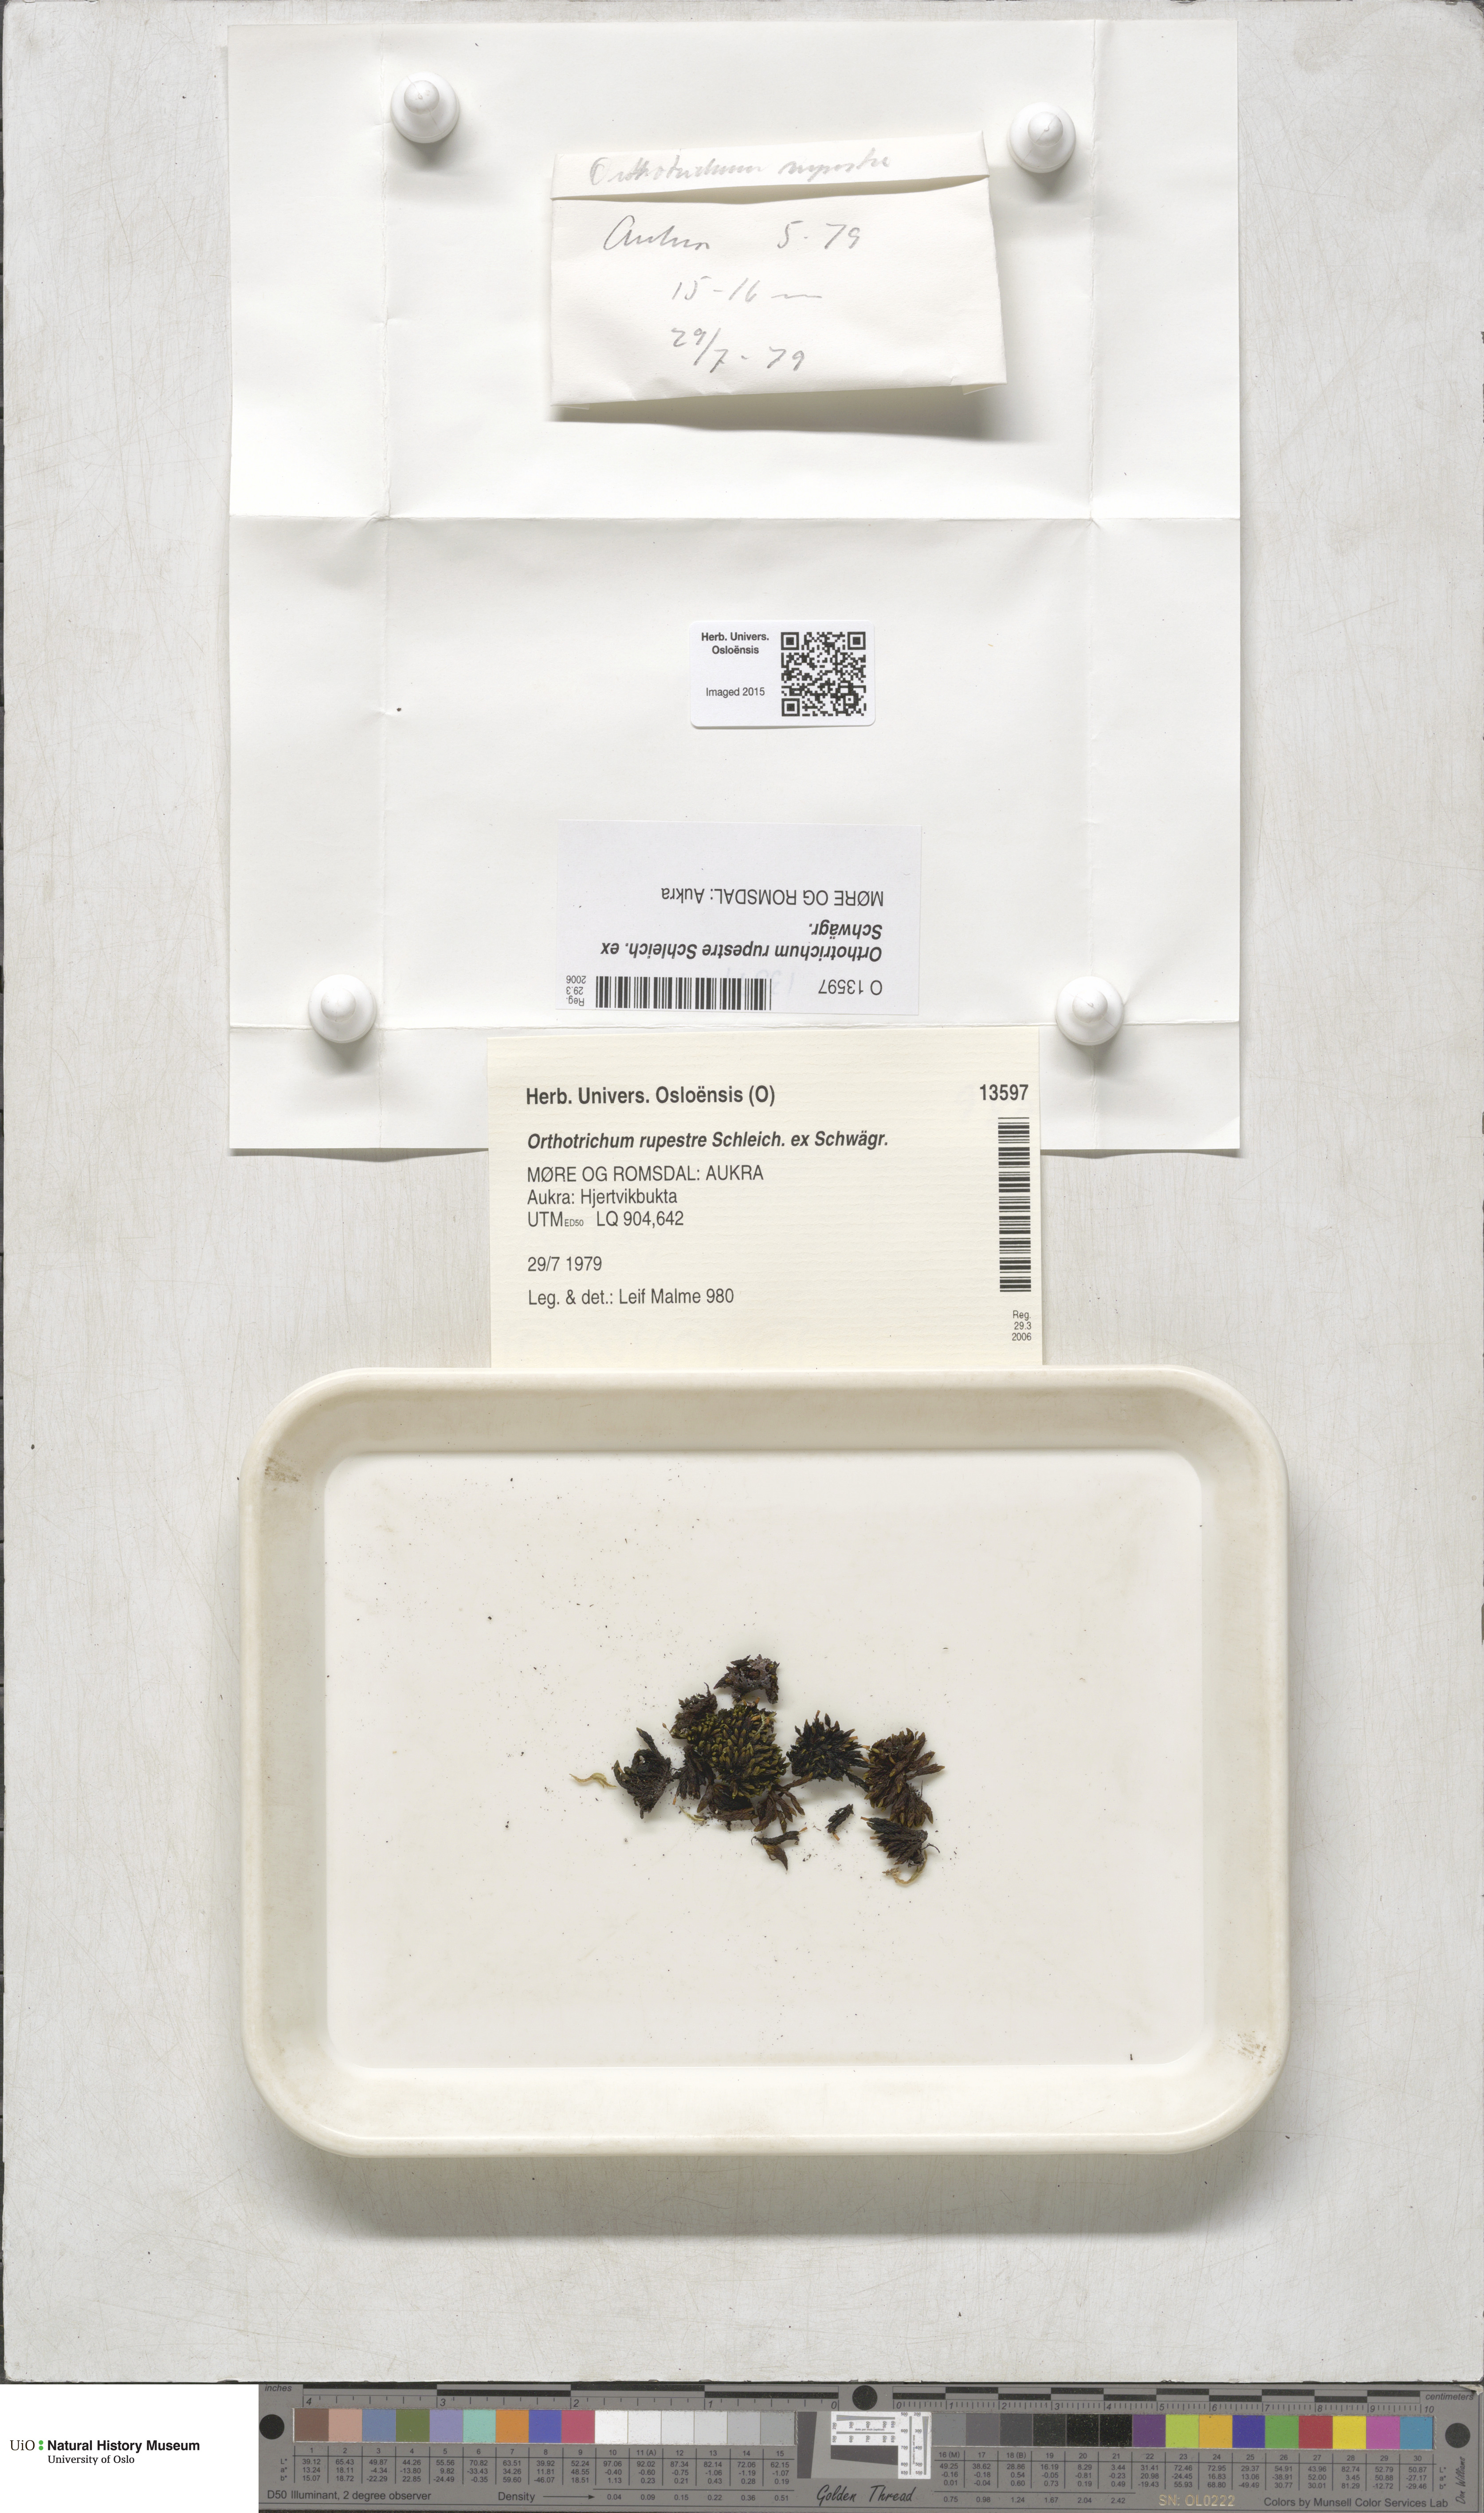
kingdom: Plantae
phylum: Bryophyta
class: Bryopsida
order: Orthotrichales
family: Orthotrichaceae
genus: Lewinskya
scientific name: Lewinskya rupestris
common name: Rock bristle-moss
